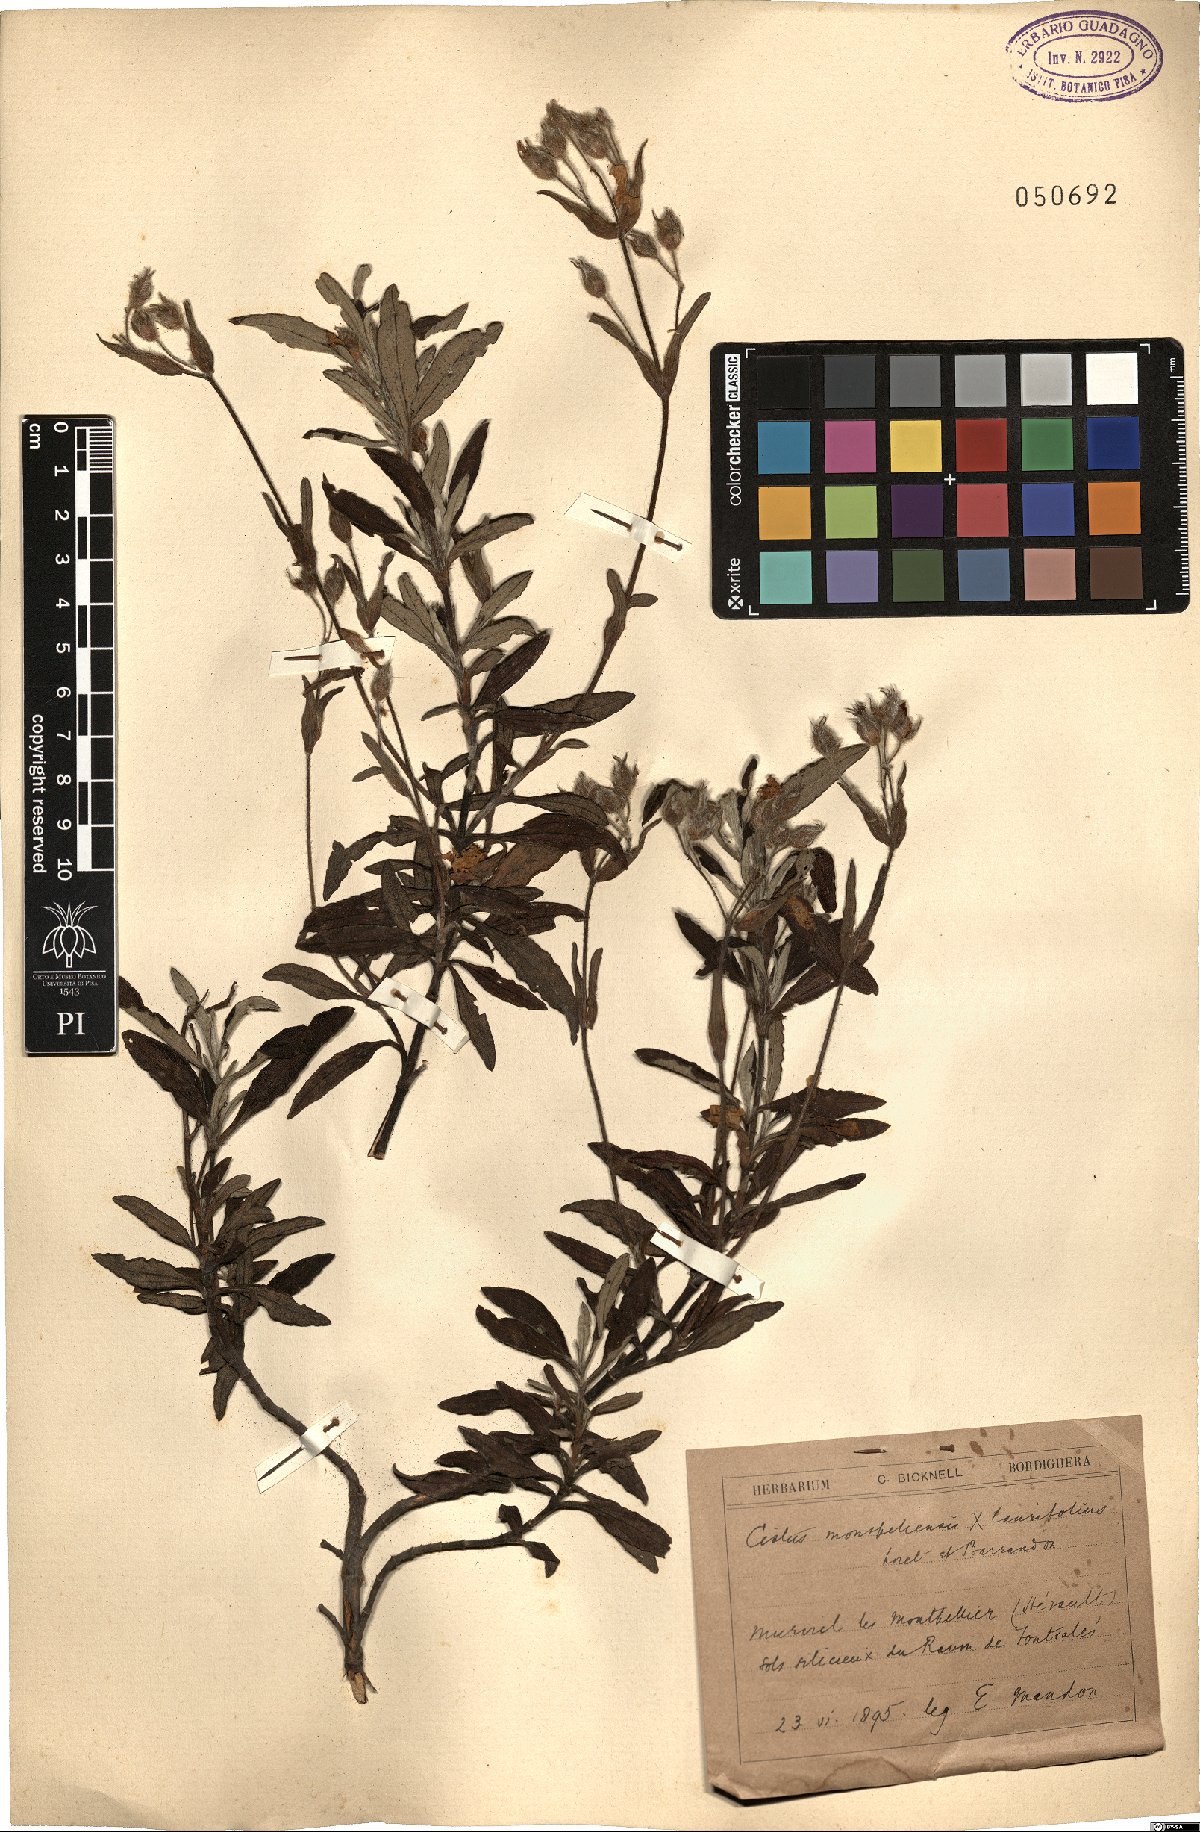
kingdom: Plantae
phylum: Tracheophyta
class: Magnoliopsida
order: Malvales
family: Cistaceae
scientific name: Cistaceae
